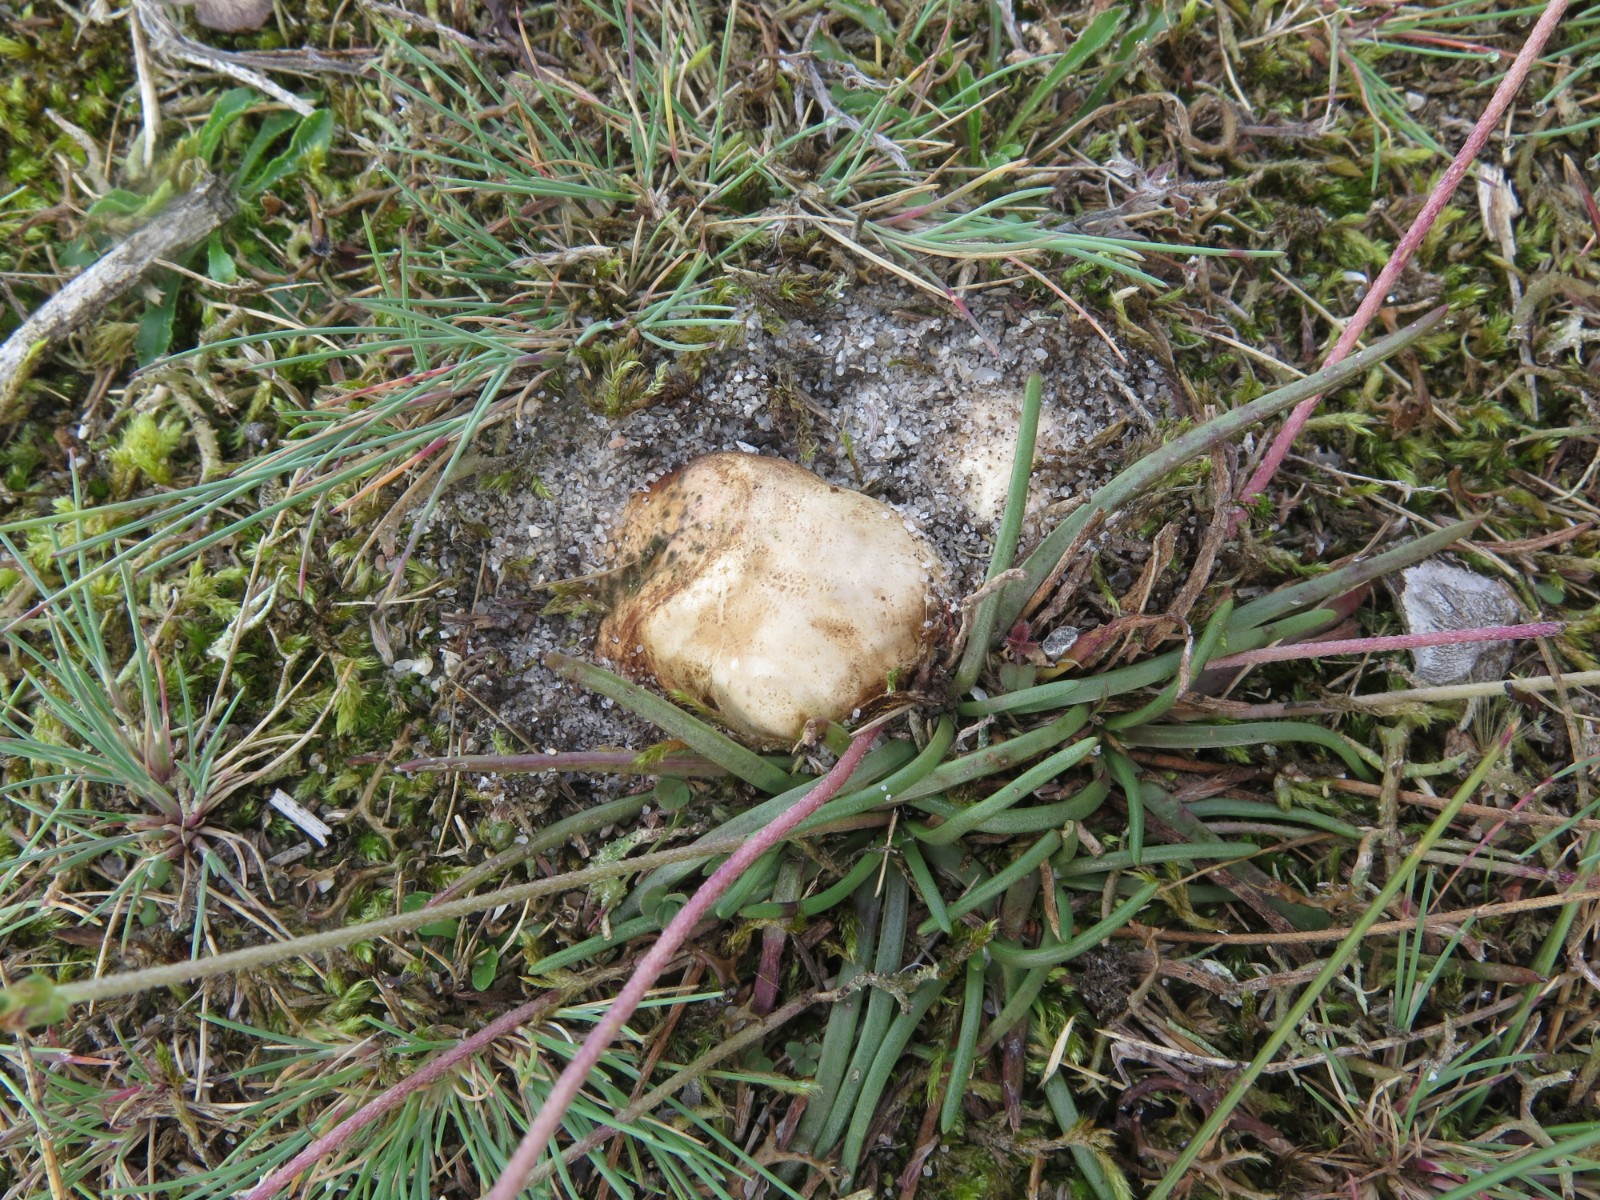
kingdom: Fungi
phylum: Basidiomycota
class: Agaricomycetes
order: Boletales
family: Rhizopogonaceae
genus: Rhizopogon
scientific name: Rhizopogon obtextus
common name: gul skægtrøffel
